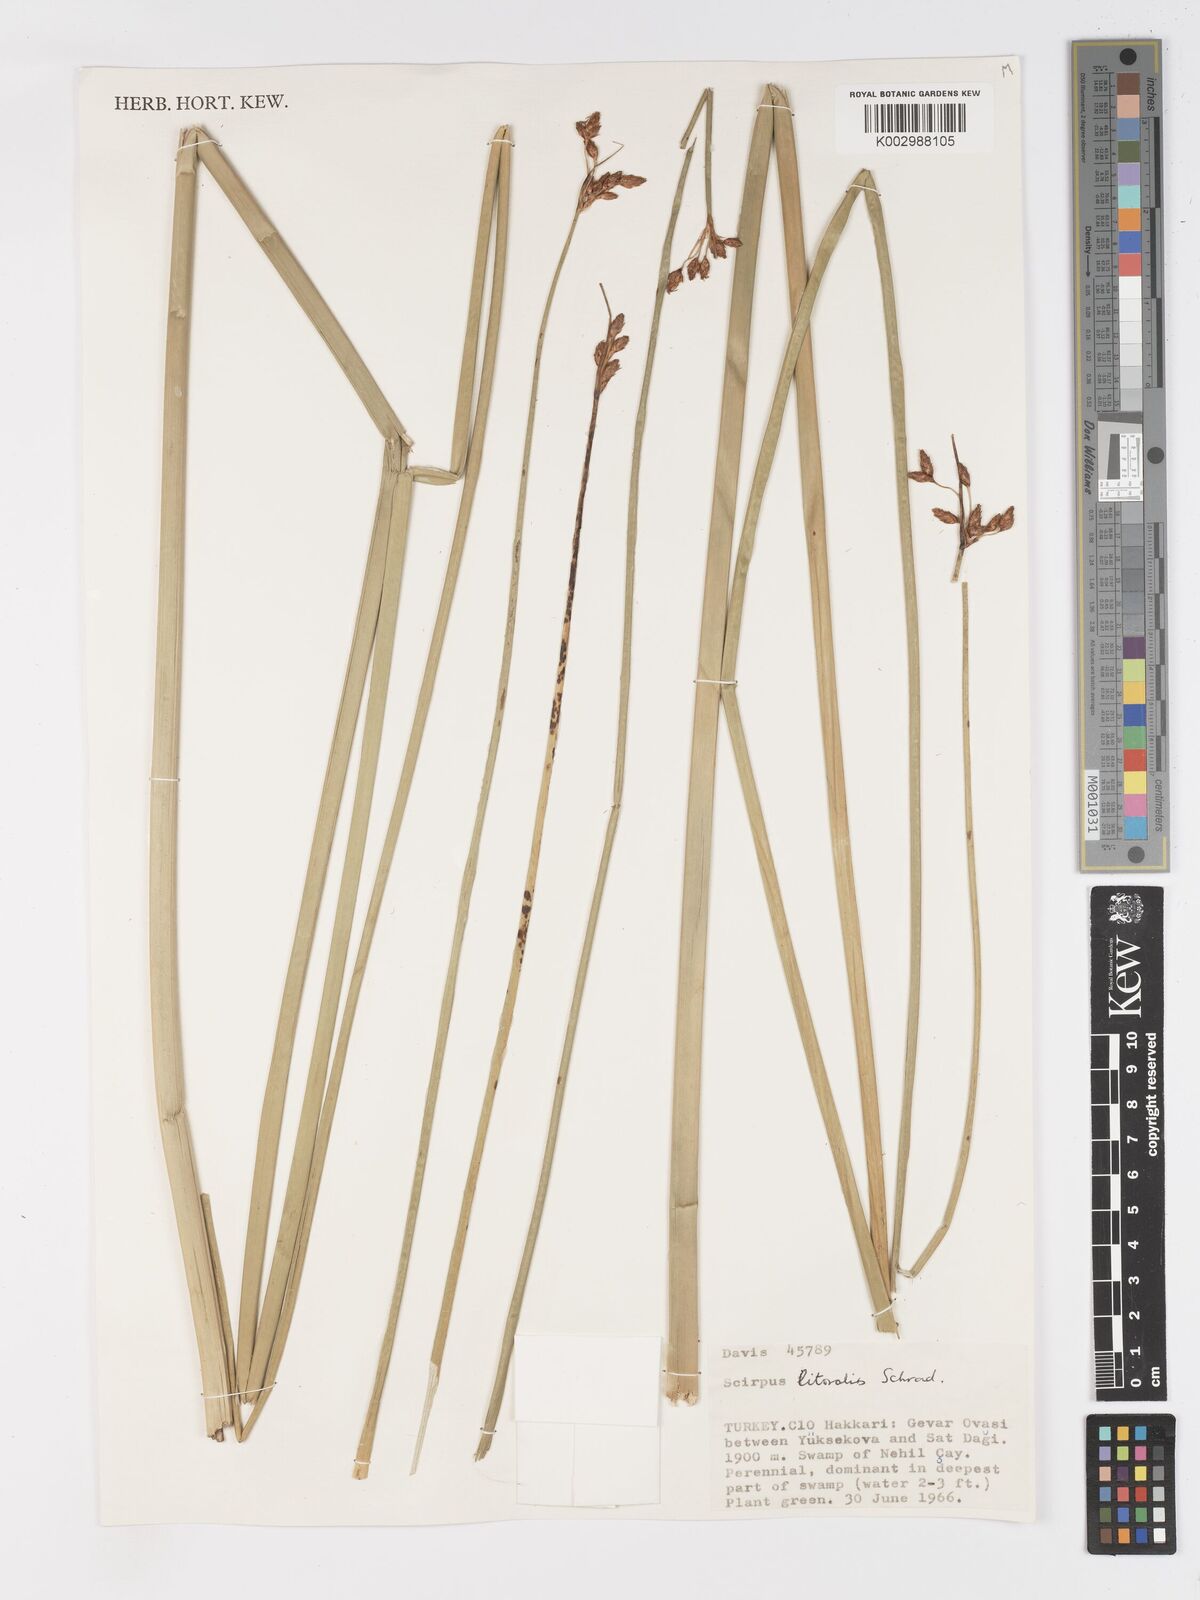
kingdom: Plantae
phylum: Tracheophyta
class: Liliopsida
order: Poales
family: Cyperaceae
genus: Schoenoplectus
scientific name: Schoenoplectus litoralis
